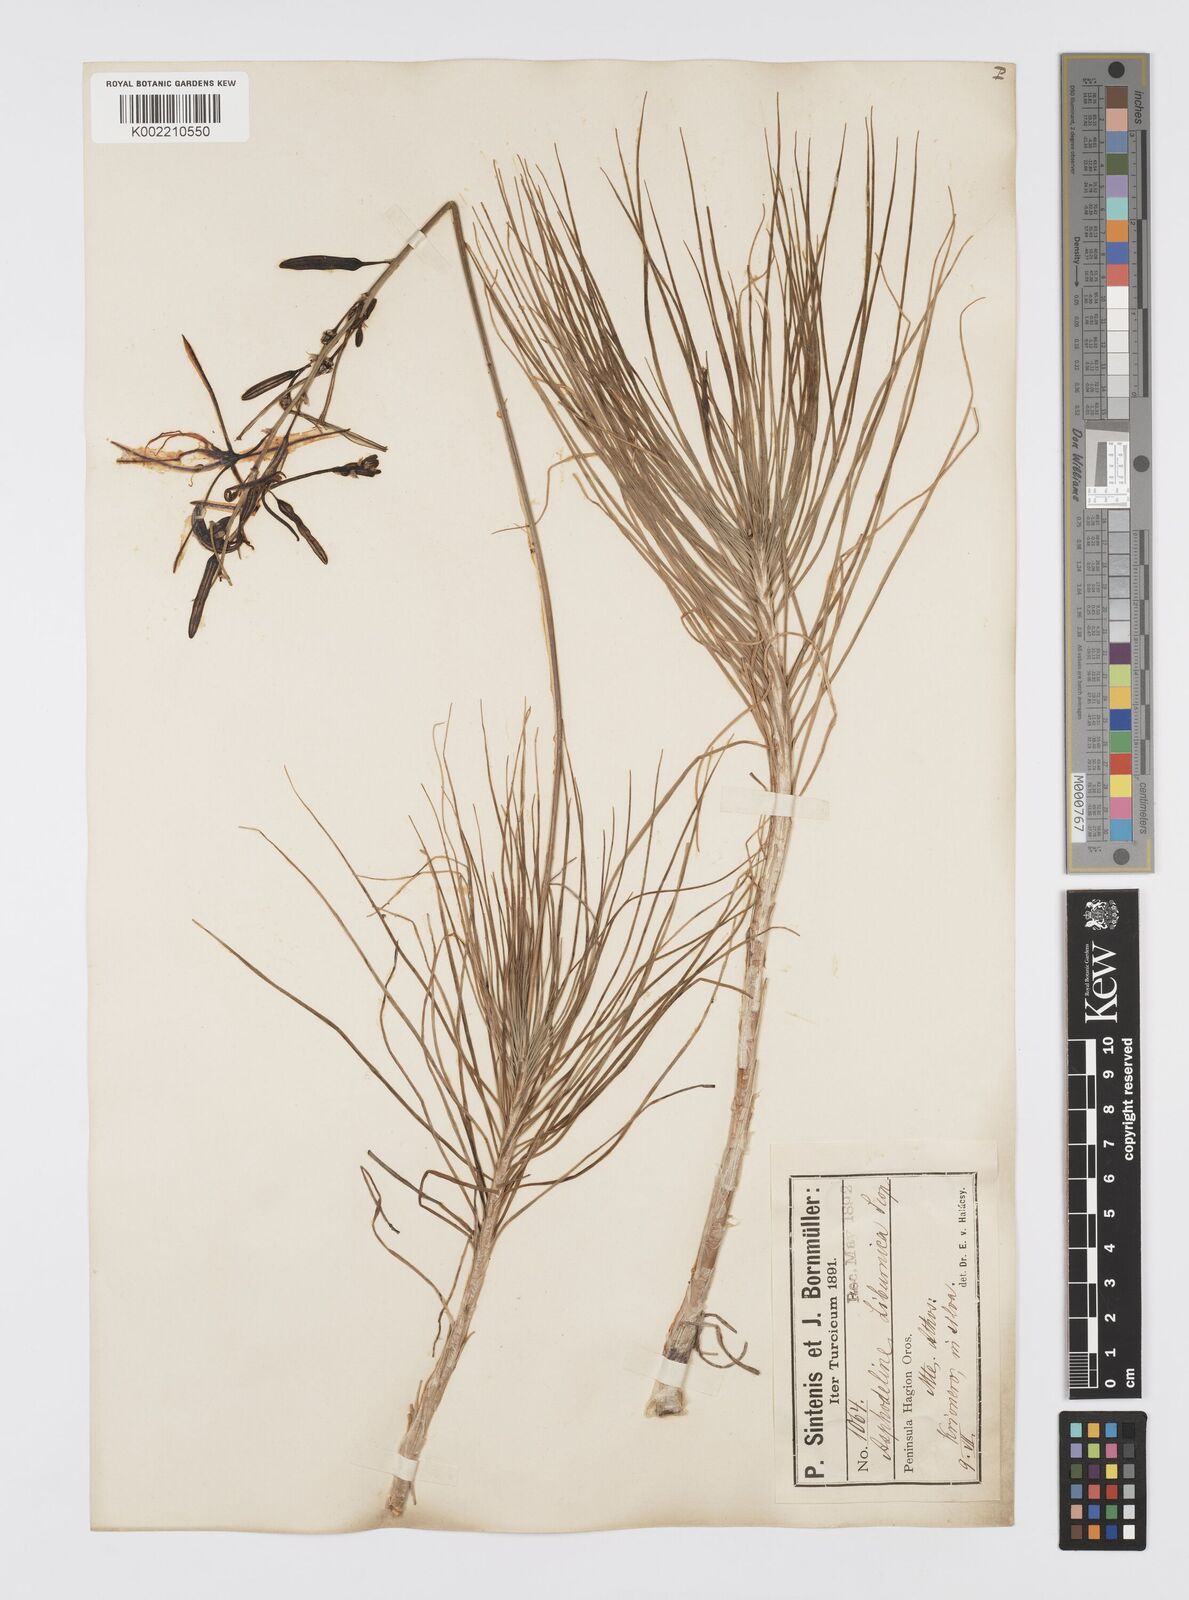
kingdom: Plantae
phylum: Tracheophyta
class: Liliopsida
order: Asparagales
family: Asphodelaceae
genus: Asphodeline
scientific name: Asphodeline liburnica
